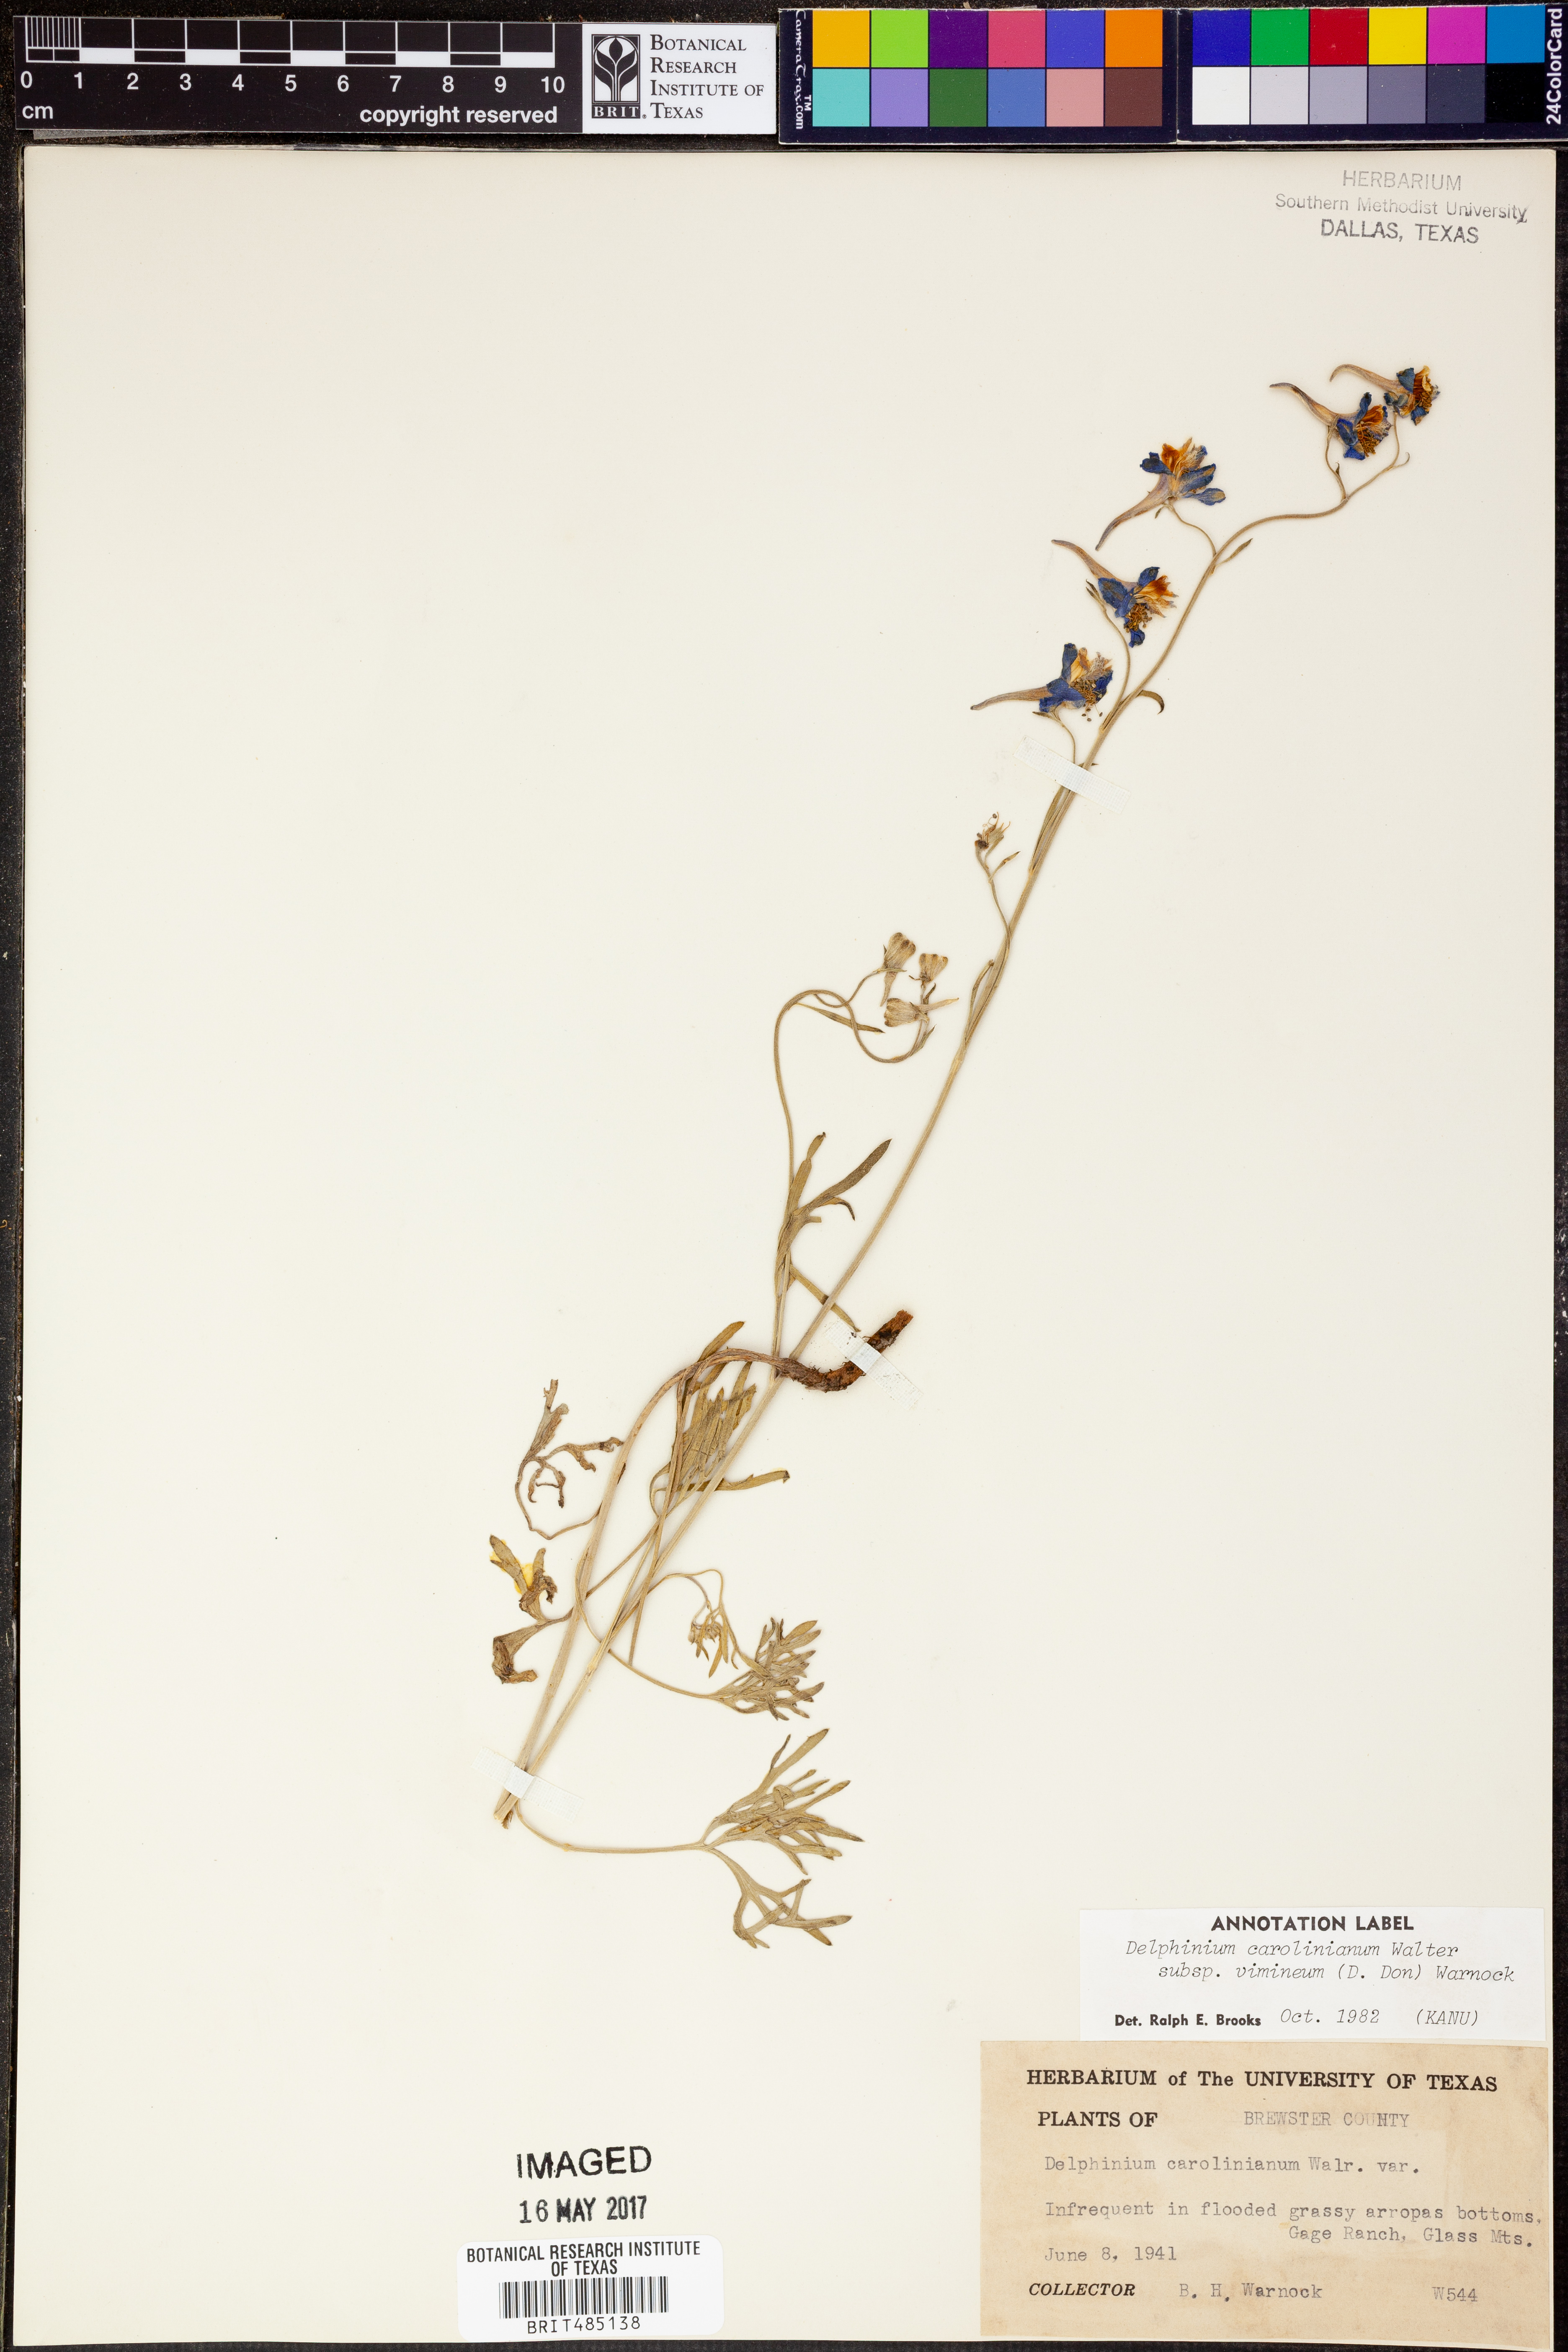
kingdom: Plantae
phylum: Tracheophyta
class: Magnoliopsida
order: Ranunculales
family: Ranunculaceae
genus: Delphinium
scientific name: Delphinium carolinianum
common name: Carolina larkspur
